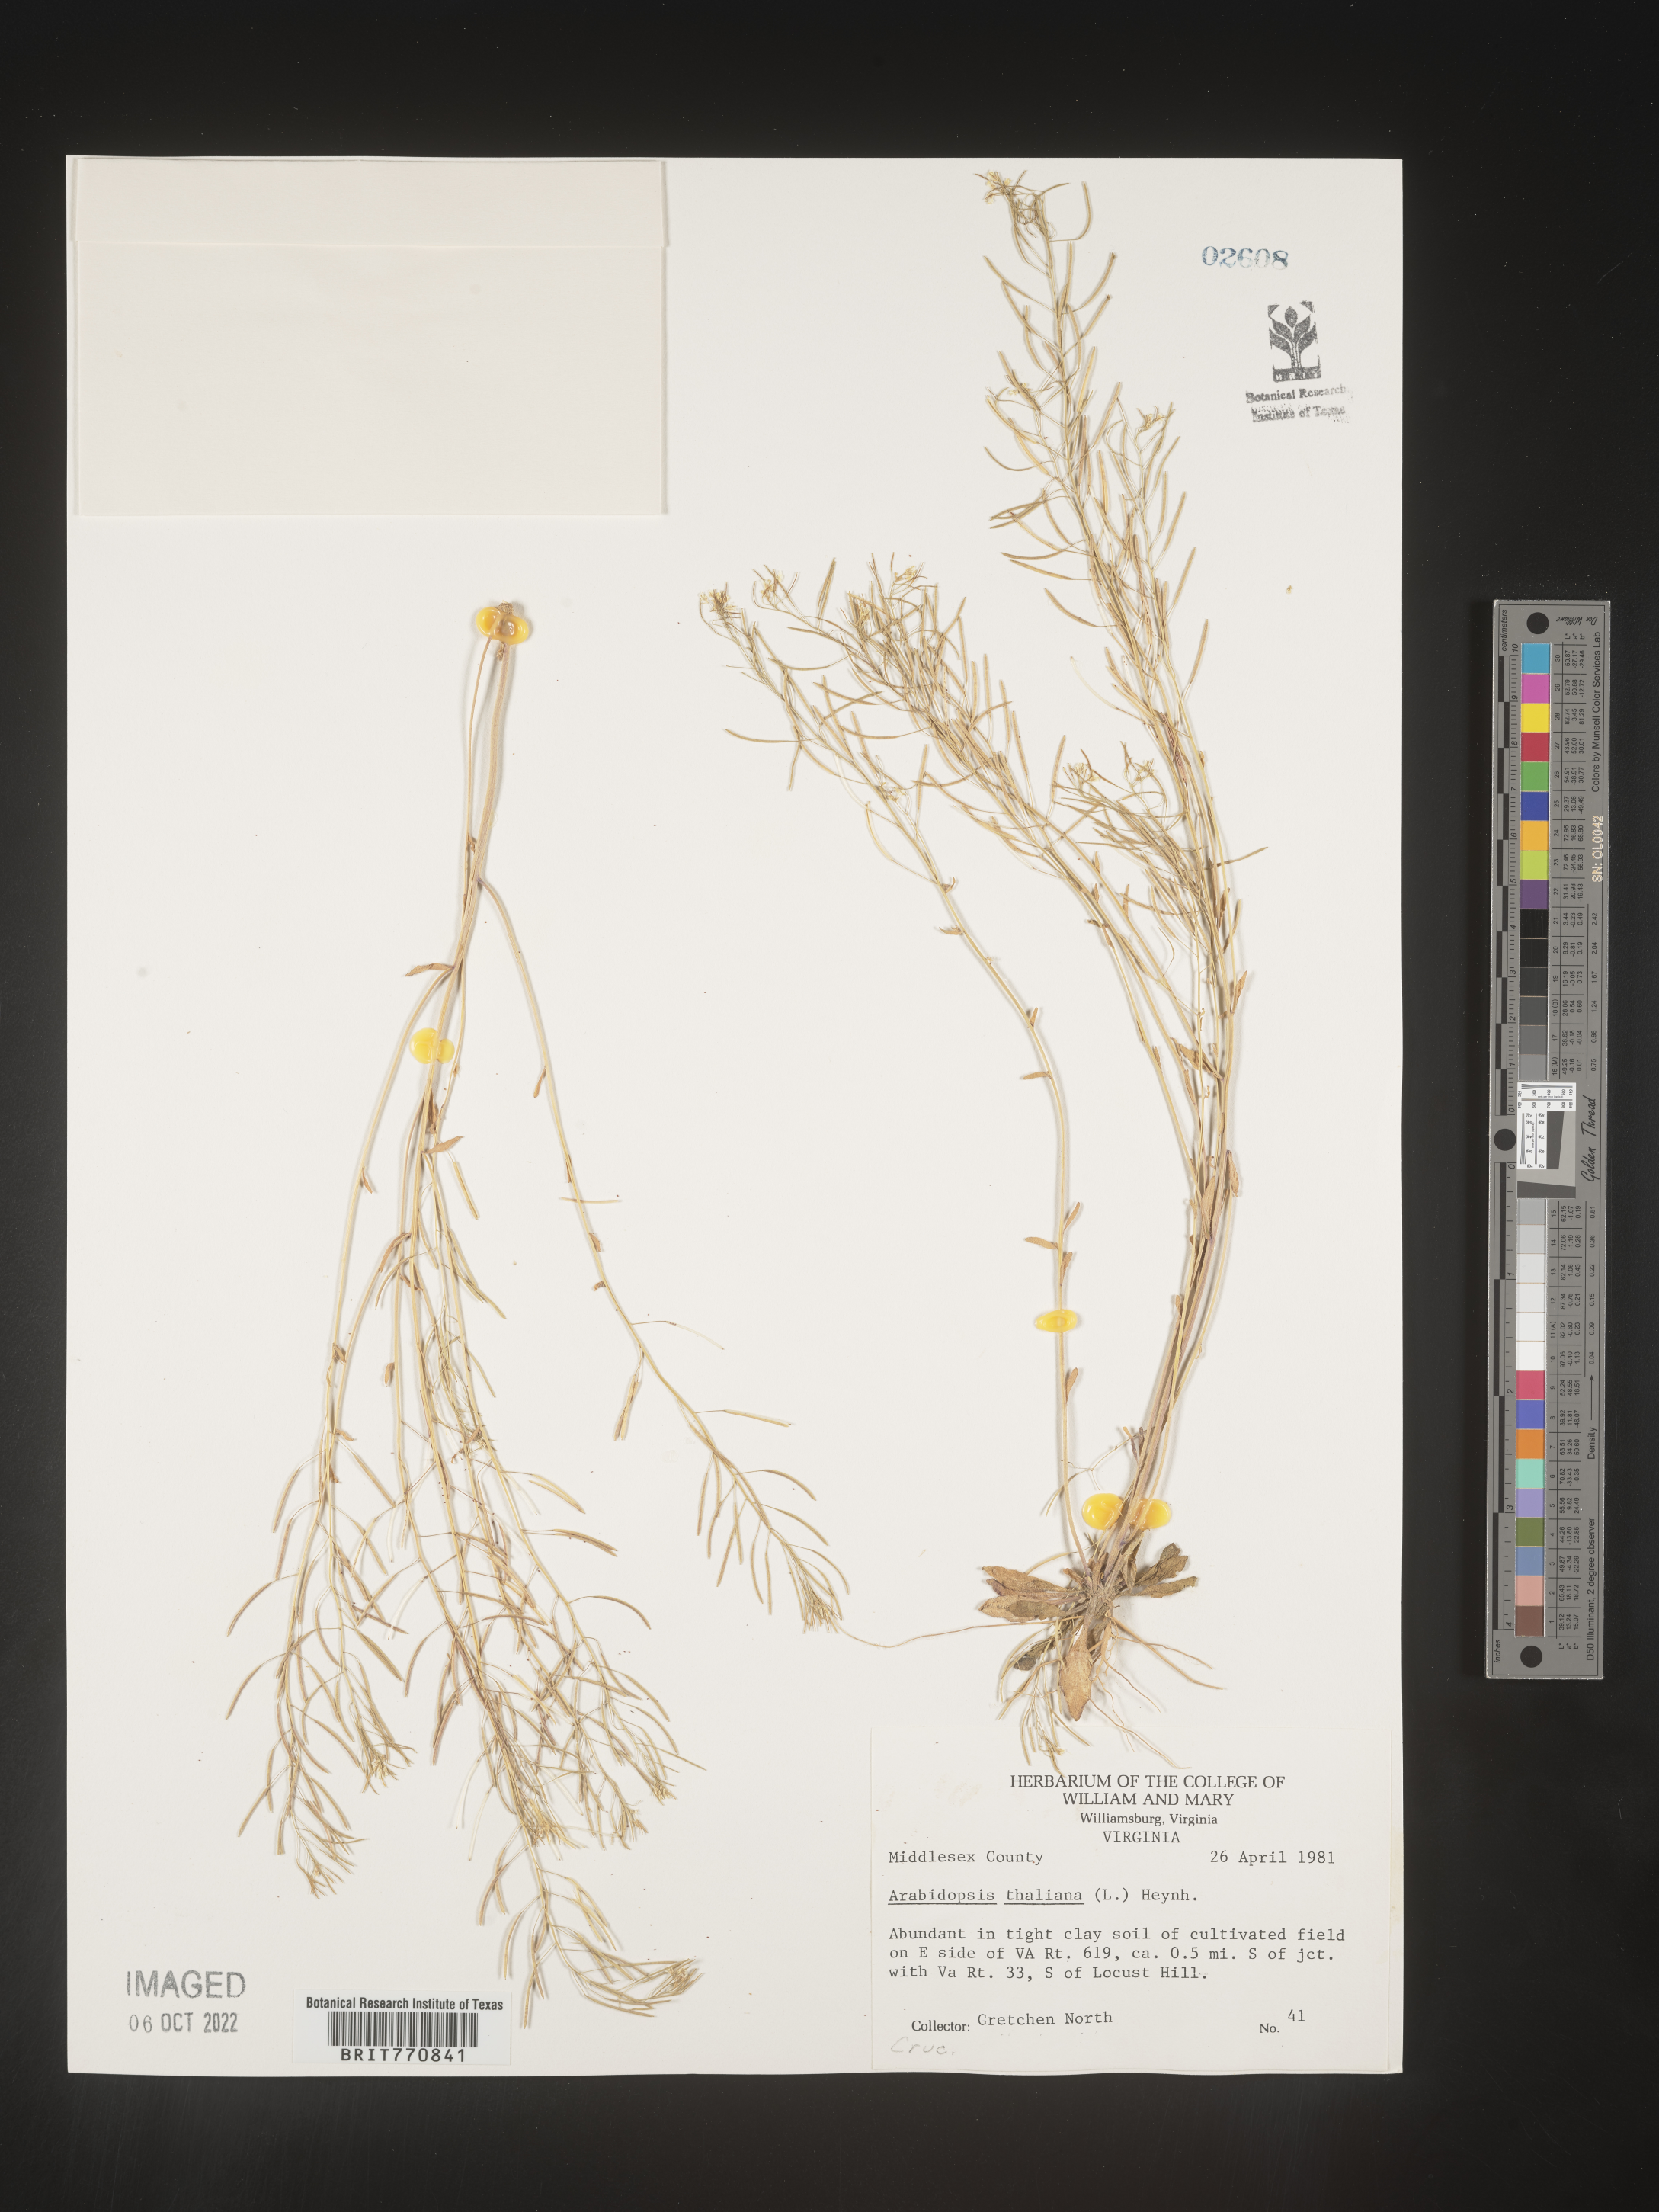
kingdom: Plantae
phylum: Tracheophyta
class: Magnoliopsida
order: Brassicales
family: Brassicaceae
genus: Arabidopsis
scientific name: Arabidopsis thaliana
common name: Thale cress
